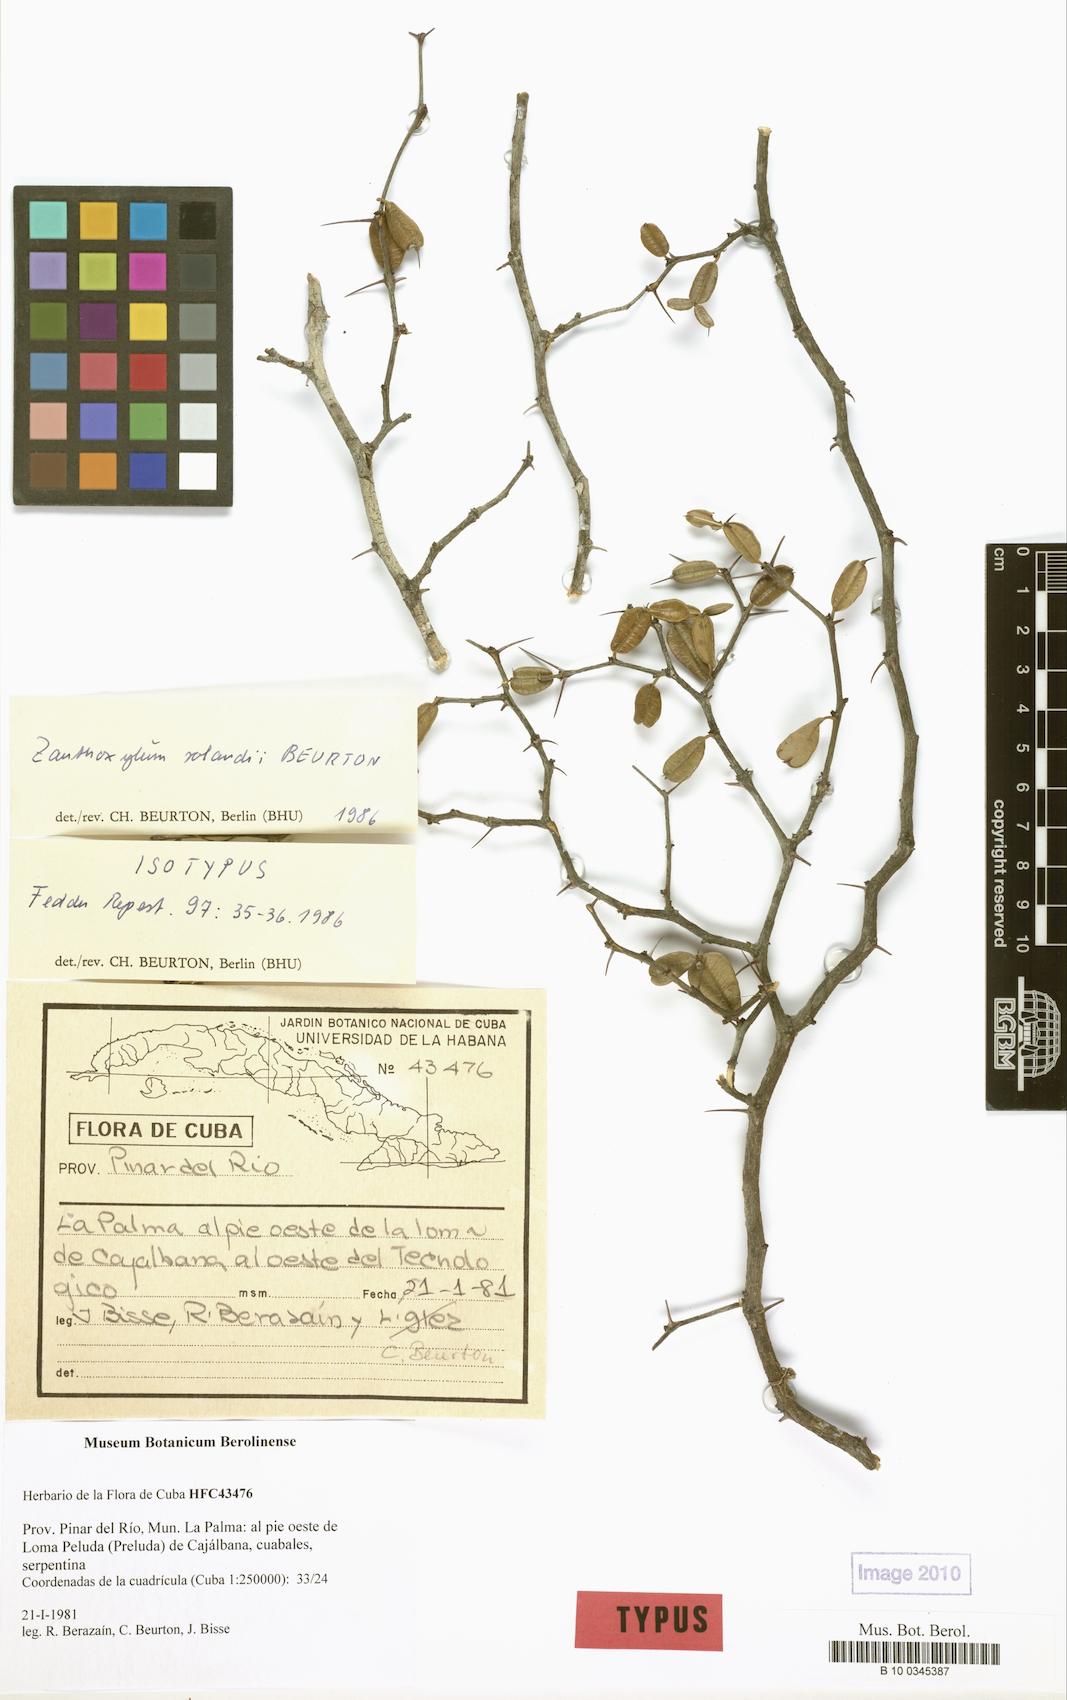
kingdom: Plantae
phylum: Tracheophyta
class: Magnoliopsida
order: Sapindales
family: Rutaceae
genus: Zanthoxylum
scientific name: Zanthoxylum dumosum
